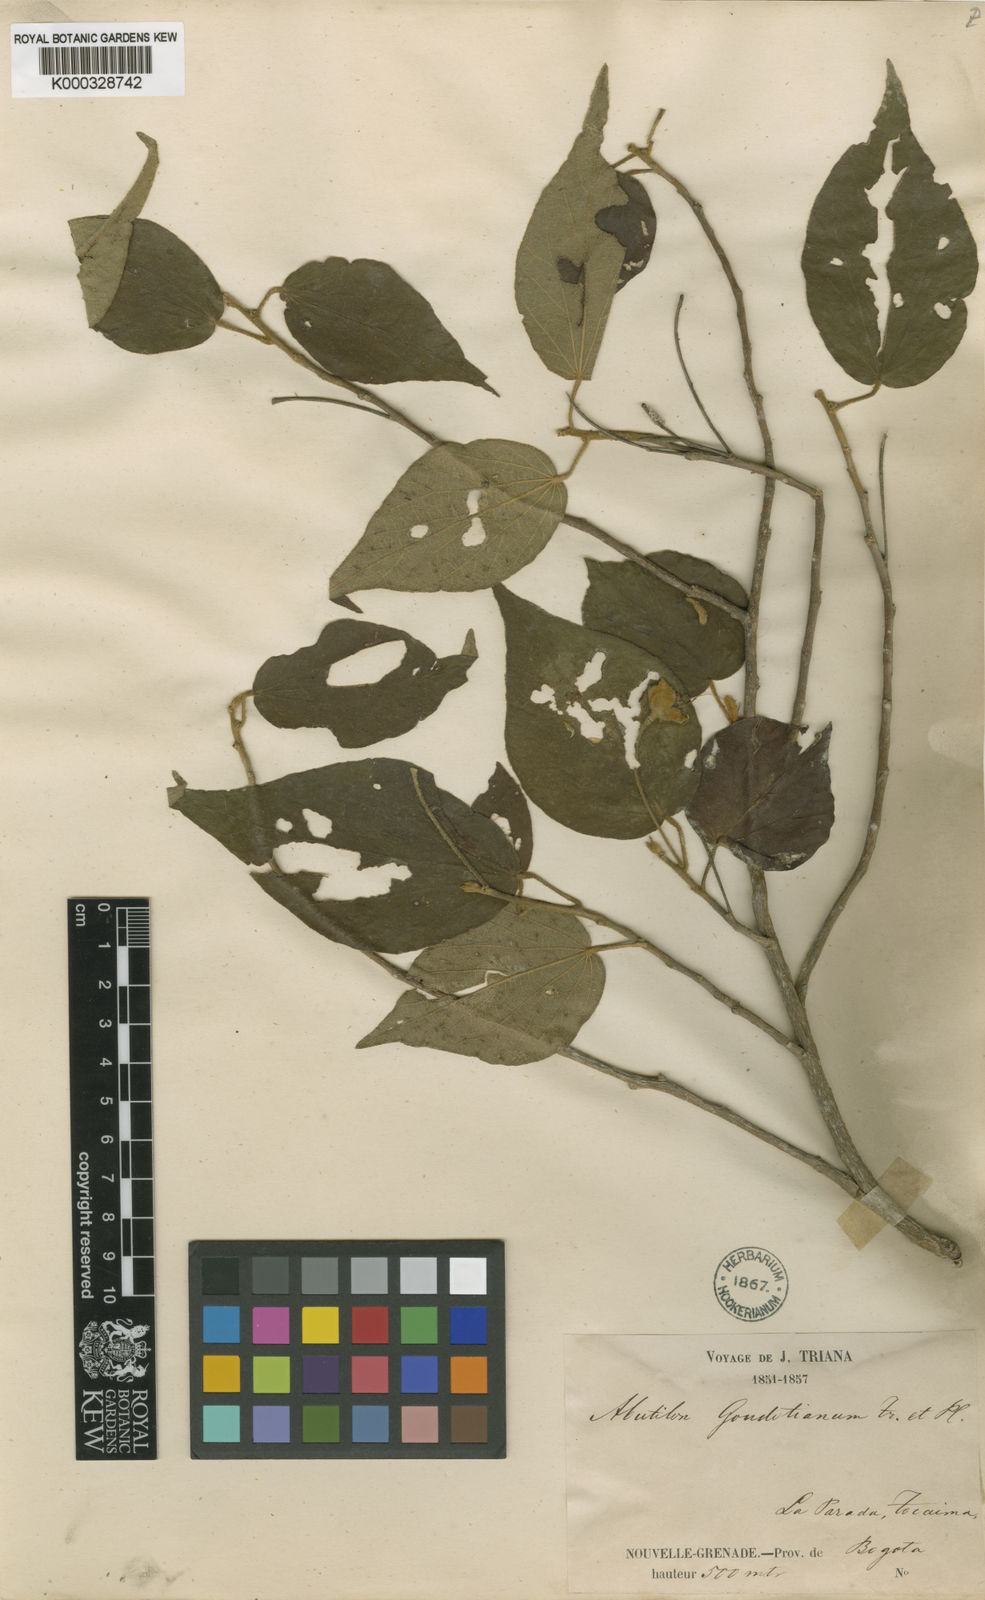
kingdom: Plantae
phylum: Tracheophyta
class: Magnoliopsida
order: Malvales
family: Malvaceae
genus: Bakeridesia
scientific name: Bakeridesia integerrima
